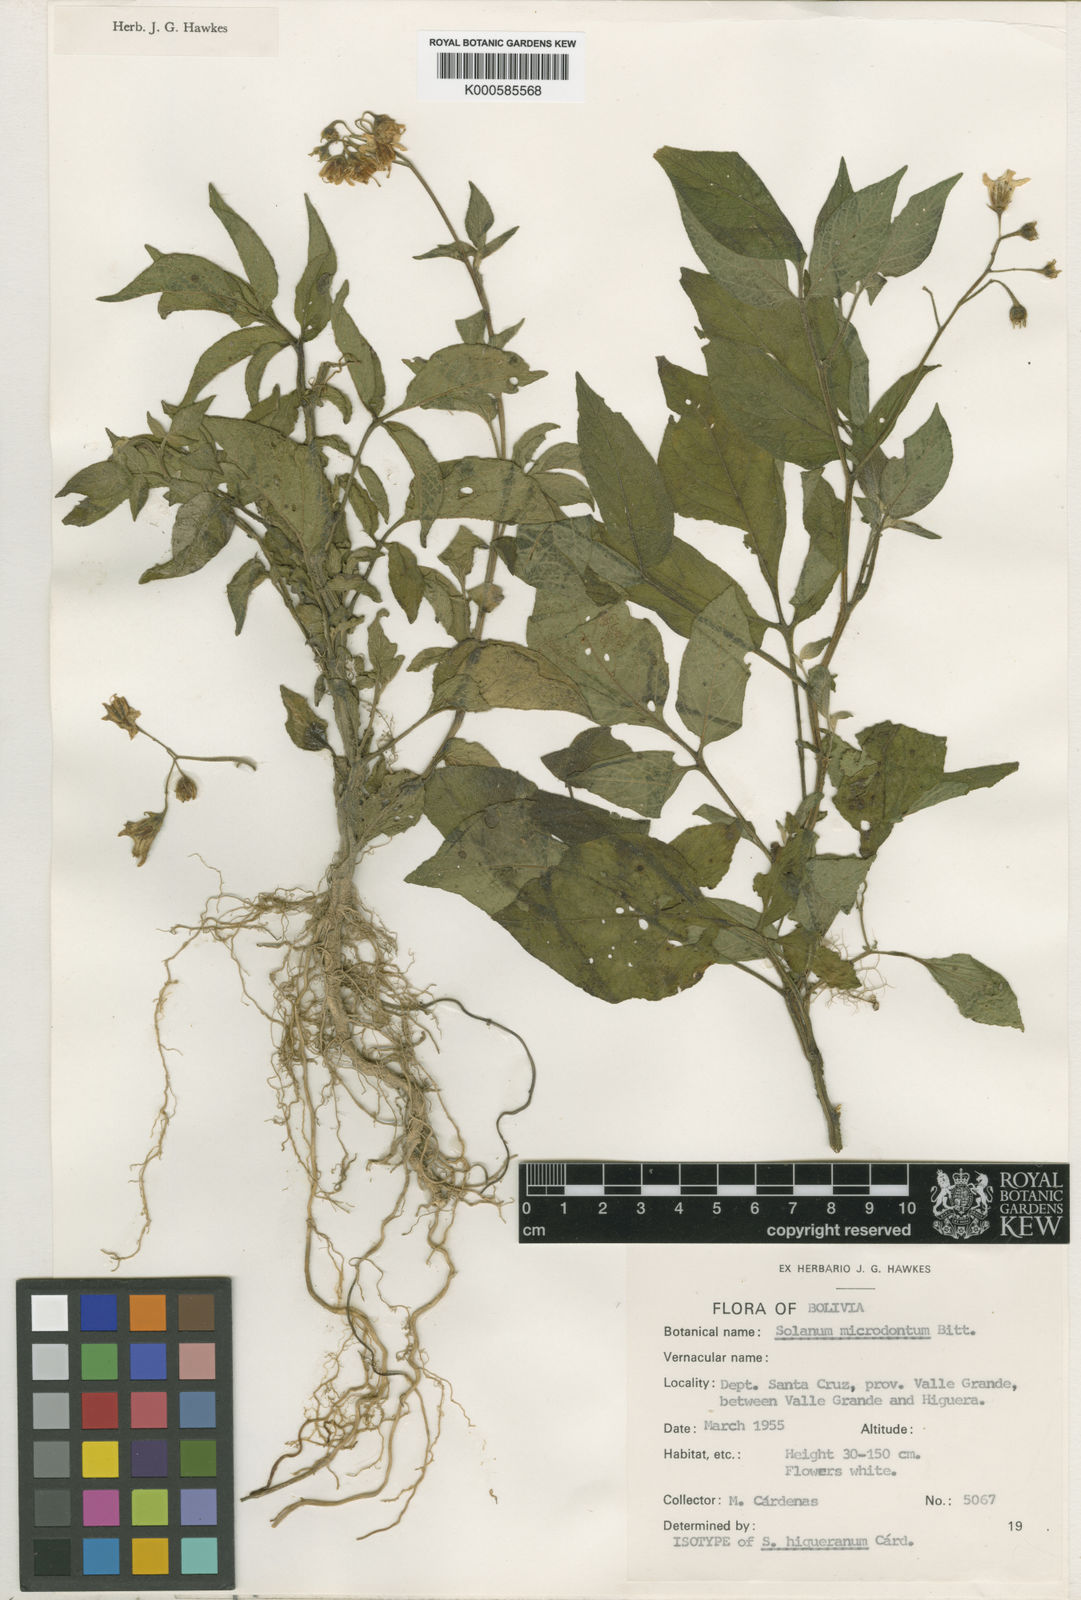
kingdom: Plantae
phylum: Tracheophyta
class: Magnoliopsida
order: Solanales
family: Solanaceae
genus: Solanum
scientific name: Solanum
